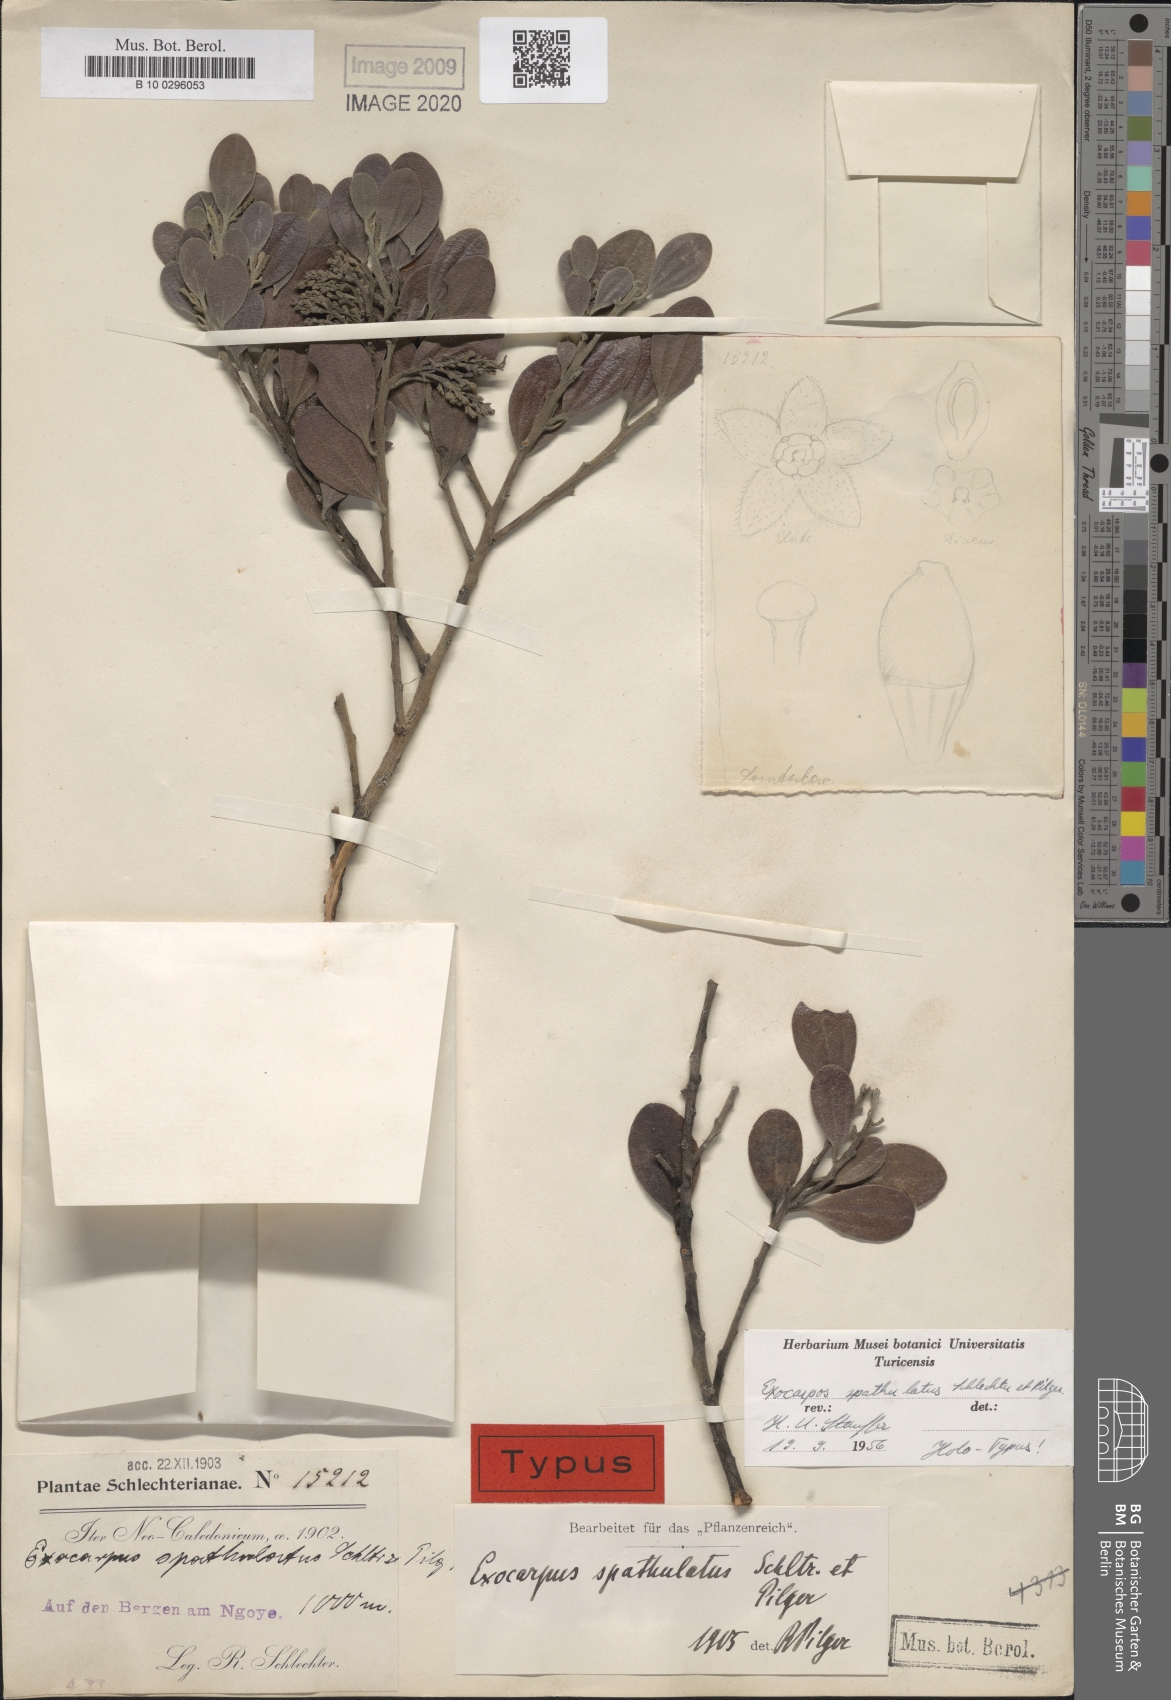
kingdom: Plantae
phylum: Tracheophyta
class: Magnoliopsida
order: Santalales
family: Santalaceae
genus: Exocarpos
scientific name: Exocarpos spathulatus
